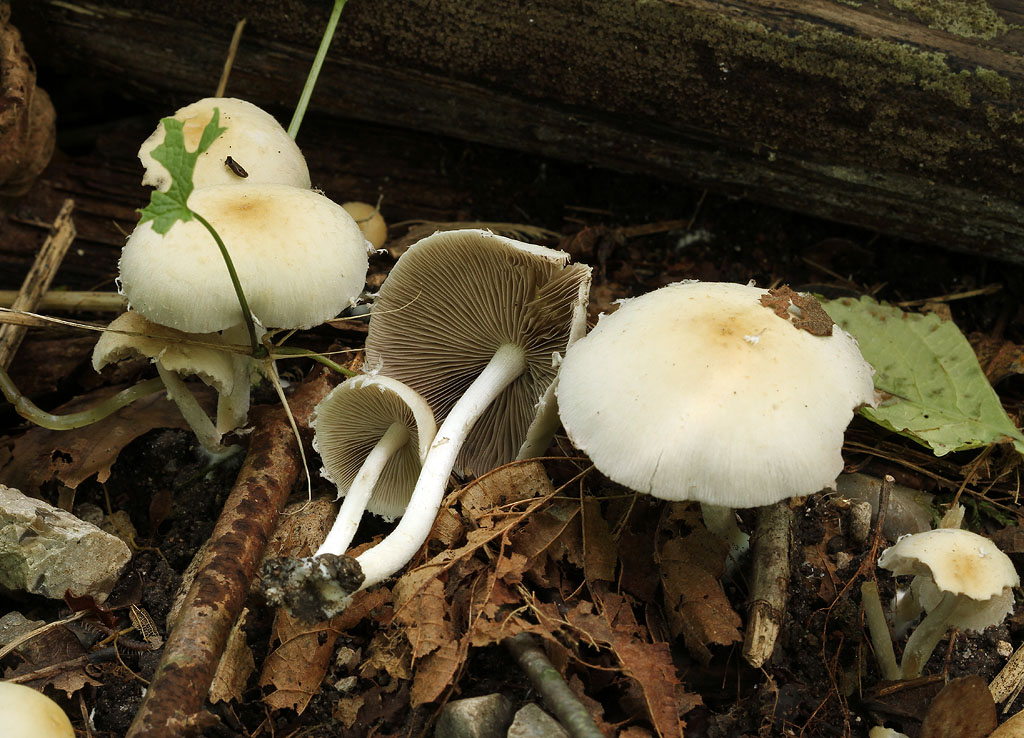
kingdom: Fungi
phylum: Basidiomycota
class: Agaricomycetes
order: Agaricales
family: Psathyrellaceae
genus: Candolleomyces
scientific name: Candolleomyces candolleanus
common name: Candolles mørkhat
